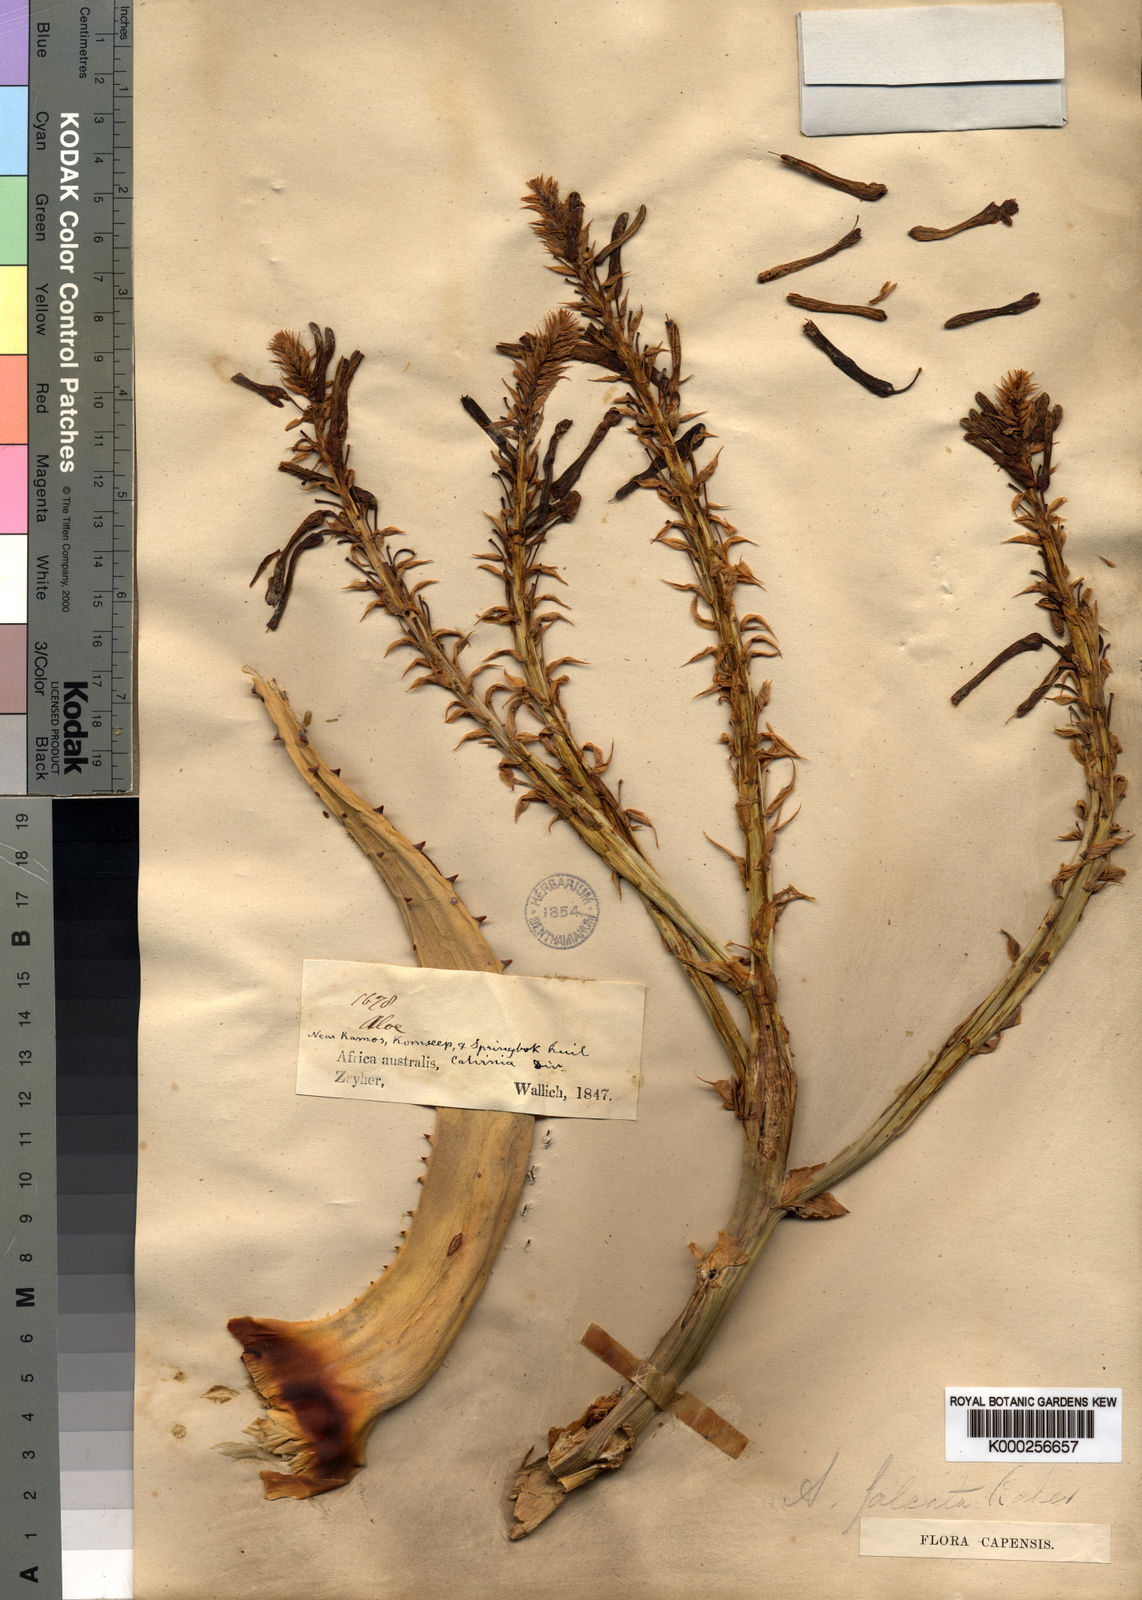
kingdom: Plantae
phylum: Tracheophyta
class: Liliopsida
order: Asparagales
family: Asphodelaceae
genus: Aloe
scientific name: Aloe falcata
